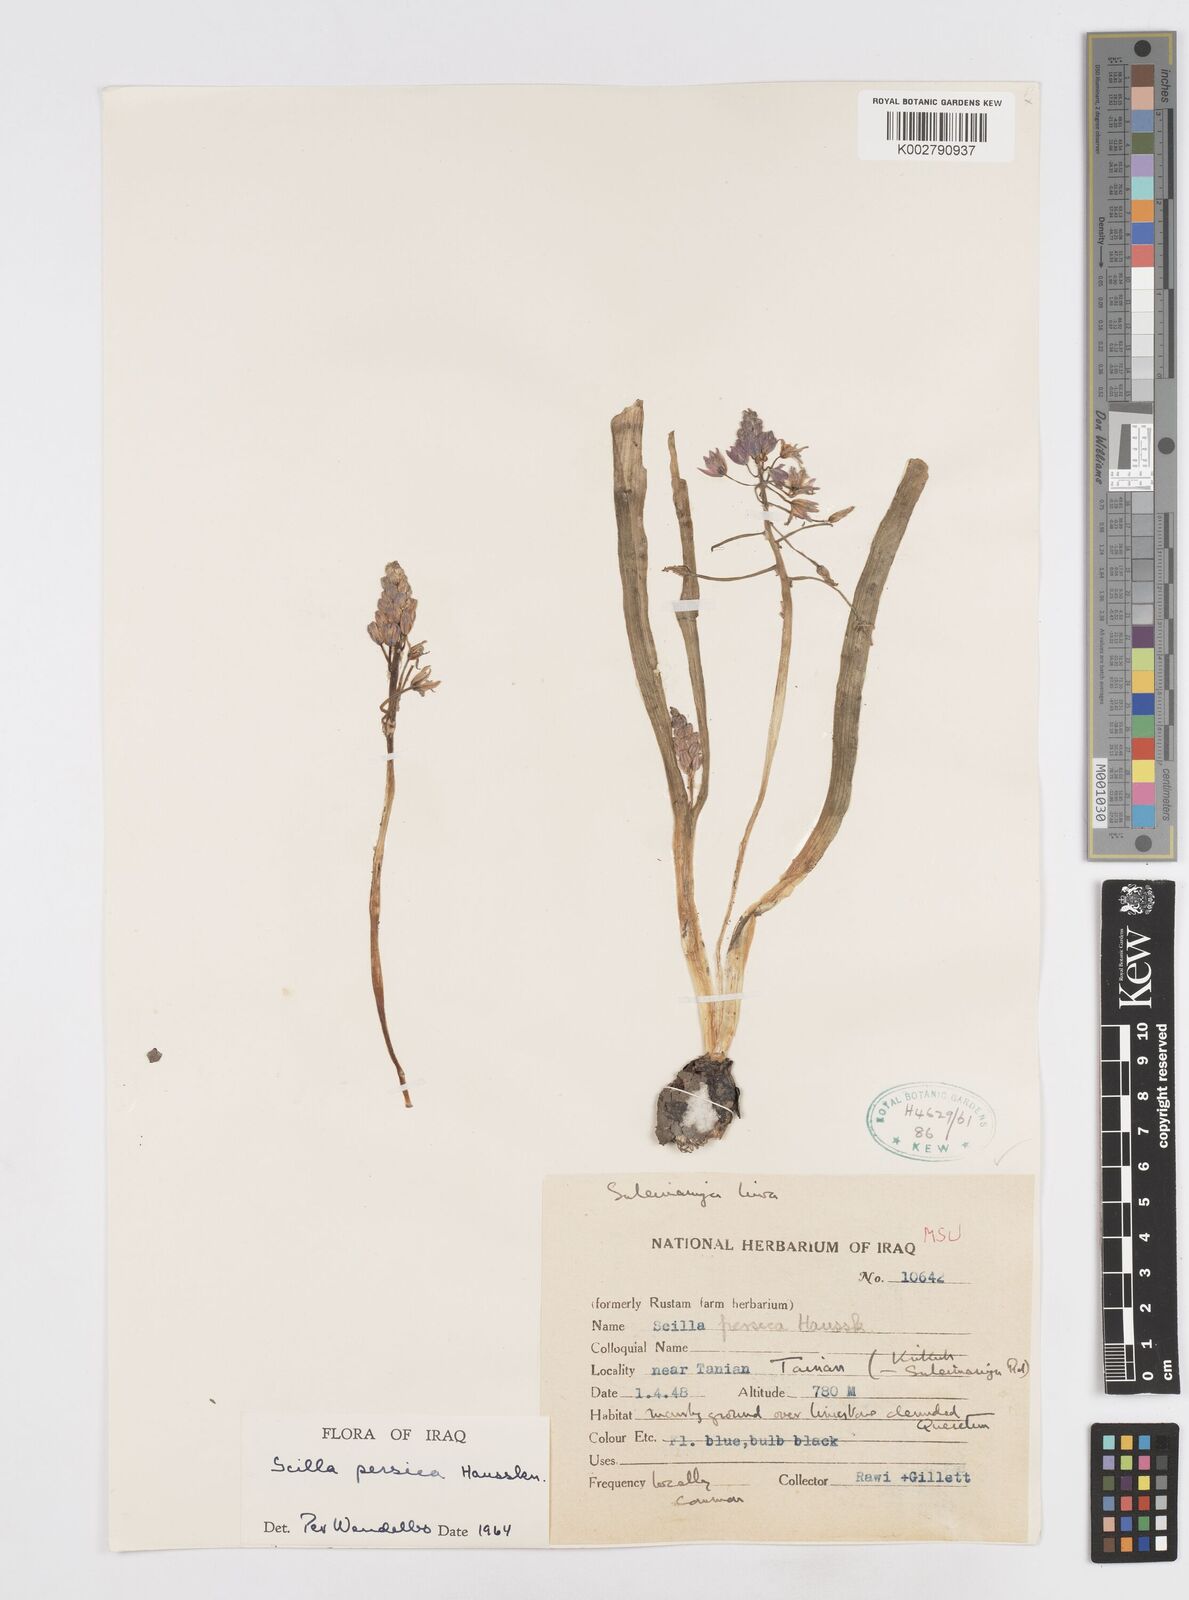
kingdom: Plantae
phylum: Tracheophyta
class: Liliopsida
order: Asparagales
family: Asparagaceae
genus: Zagrosia
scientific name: Zagrosia persica
